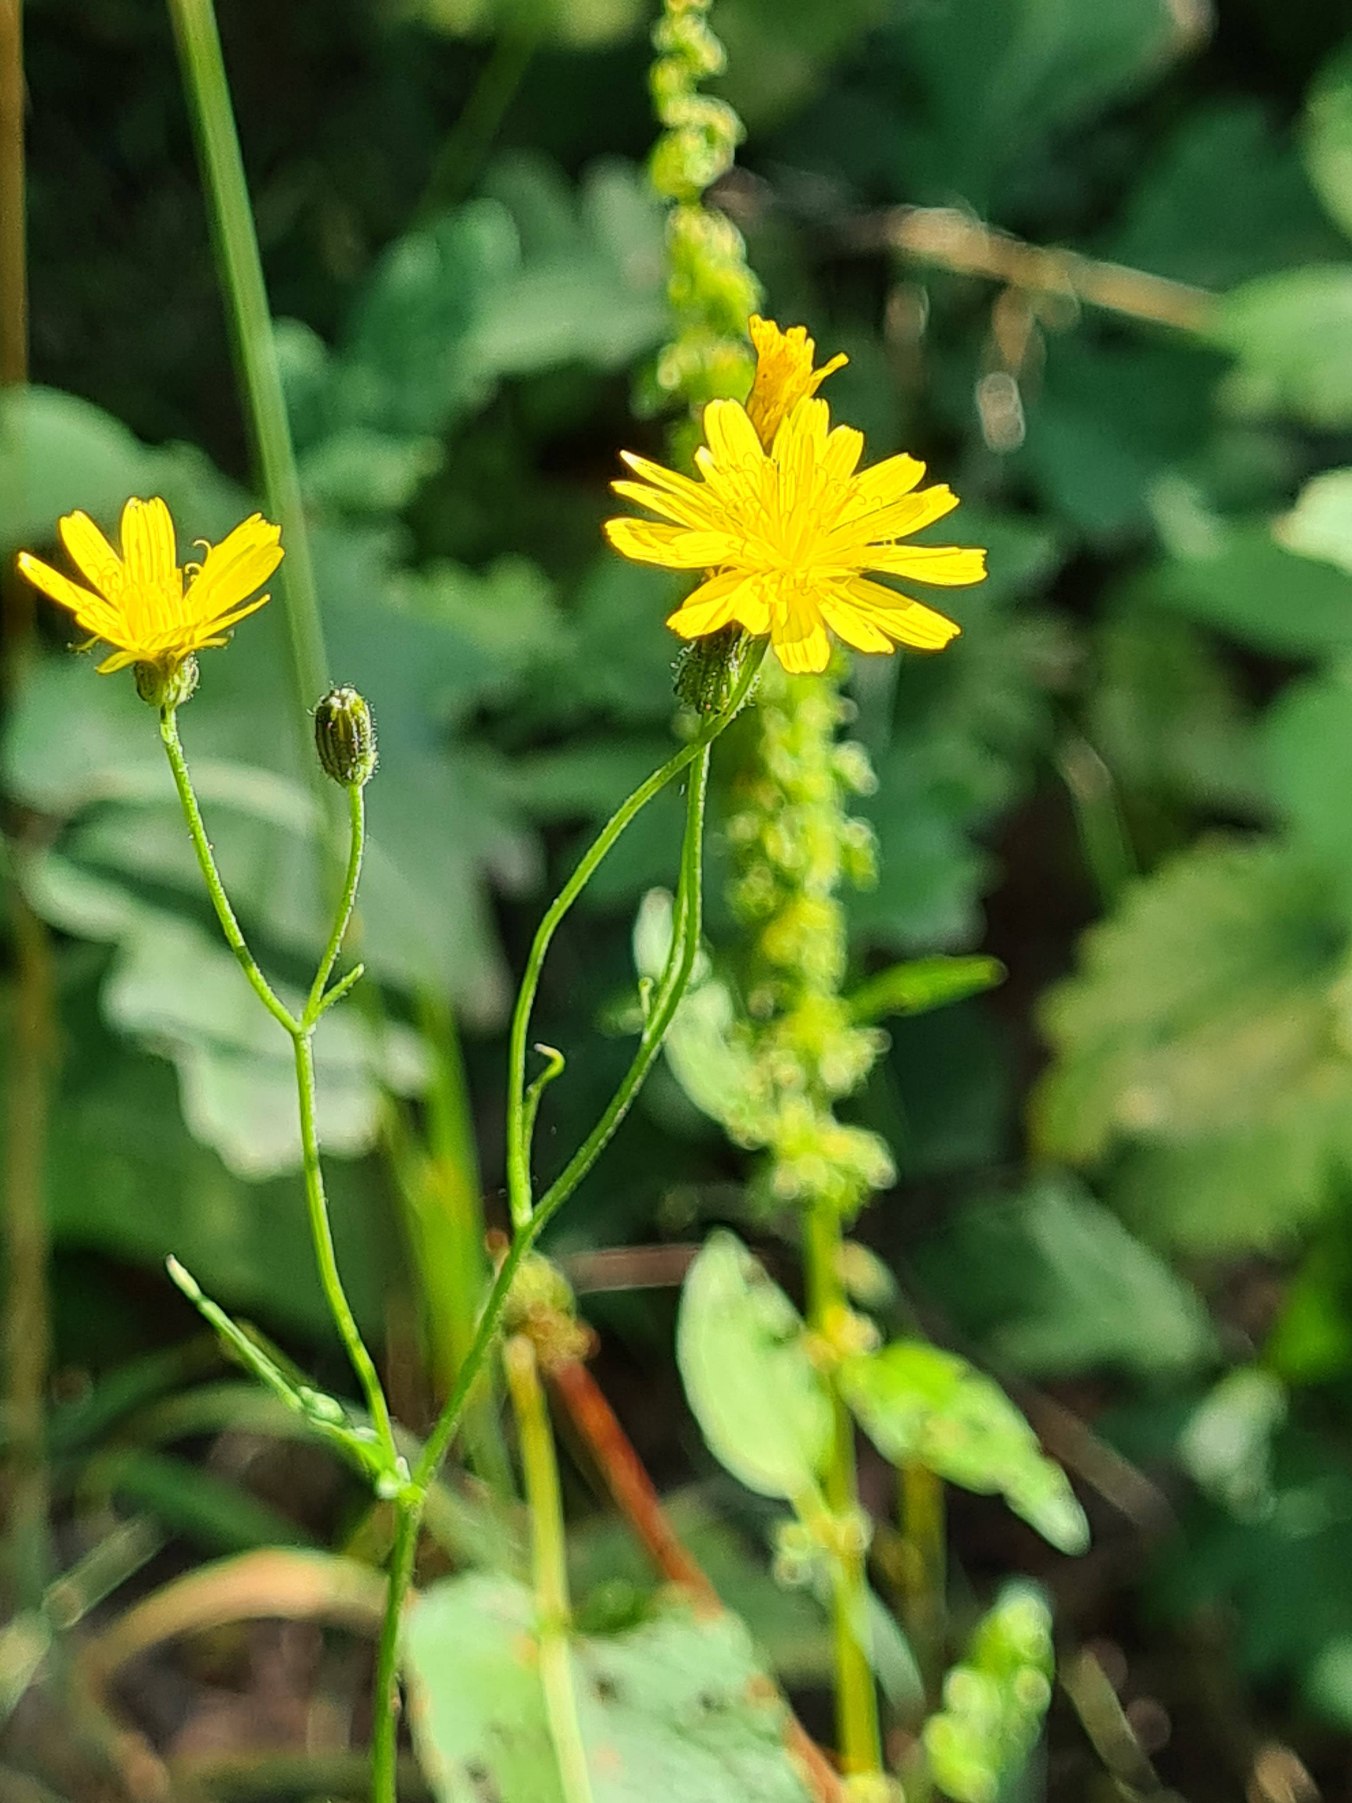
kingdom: Plantae
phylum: Tracheophyta
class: Magnoliopsida
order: Asterales
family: Asteraceae
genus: Crepis
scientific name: Crepis capillaris
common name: Grøn høgeskæg
